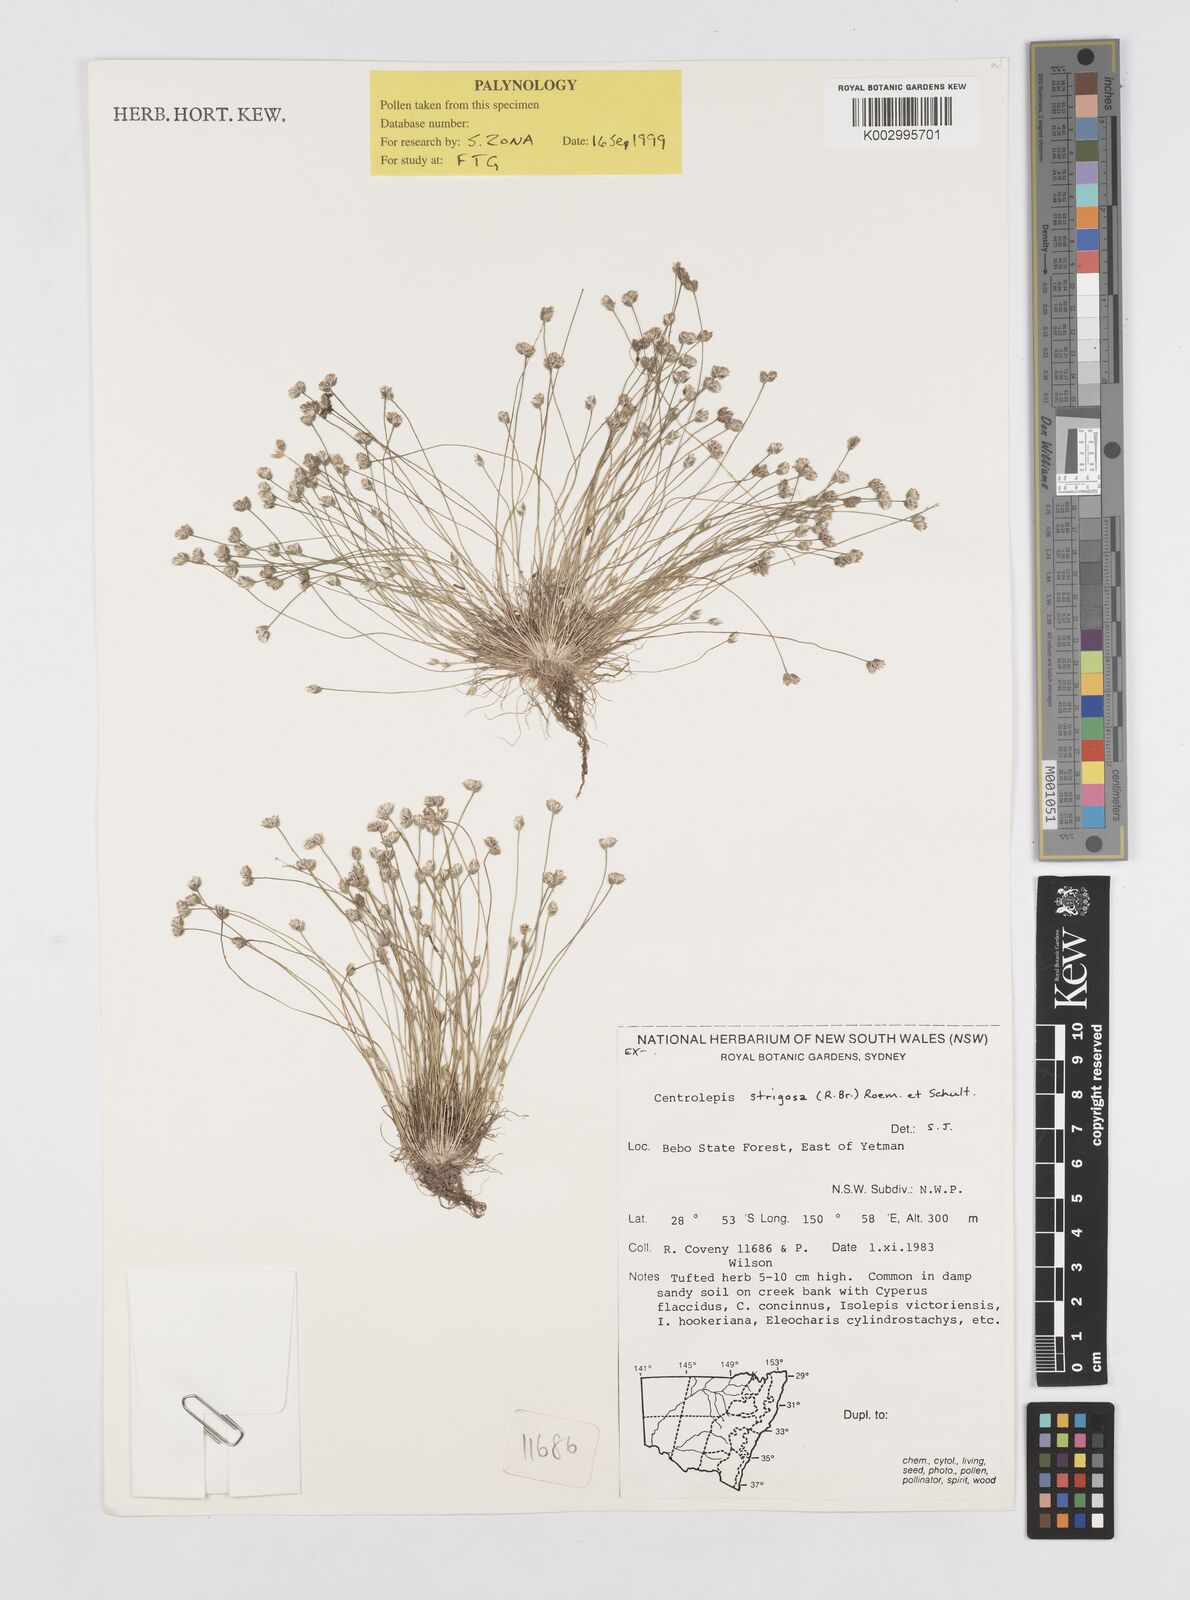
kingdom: Plantae
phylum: Tracheophyta
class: Liliopsida
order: Poales
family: Restionaceae
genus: Centrolepis
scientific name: Centrolepis strigosa
